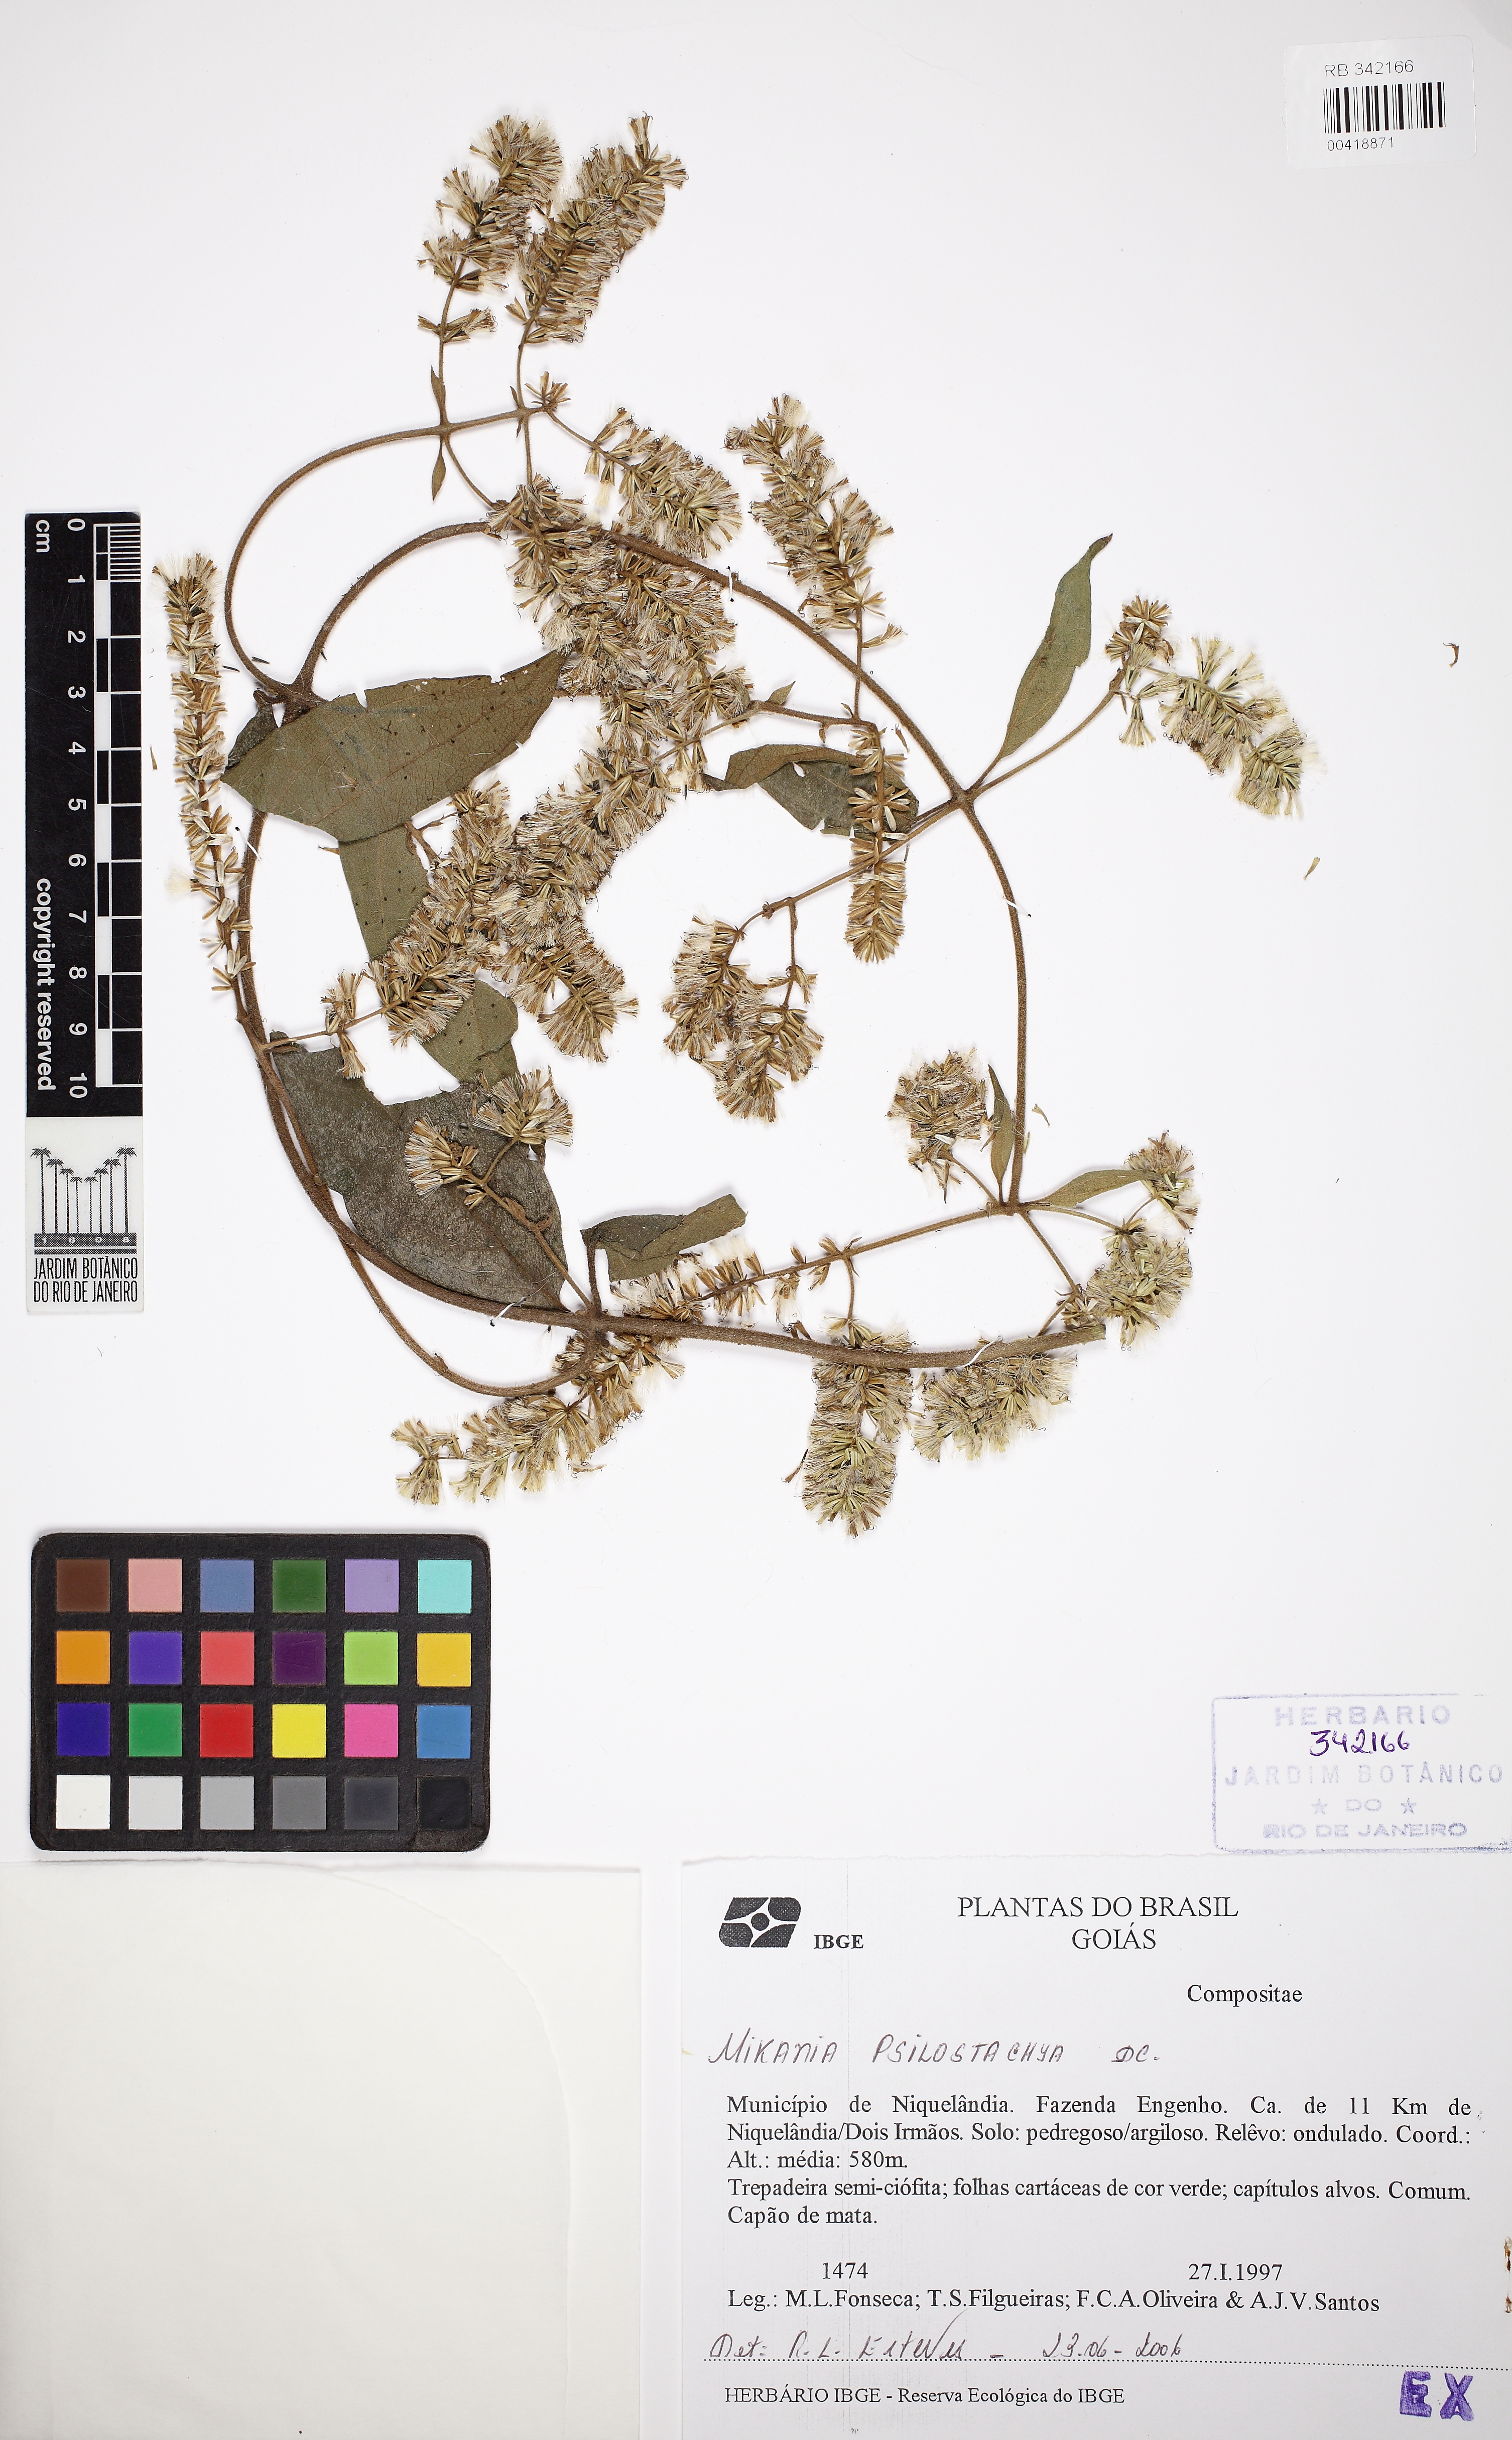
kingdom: Plantae
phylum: Tracheophyta
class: Magnoliopsida
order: Asterales
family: Asteraceae
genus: Mikania
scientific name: Mikania psilostachya
